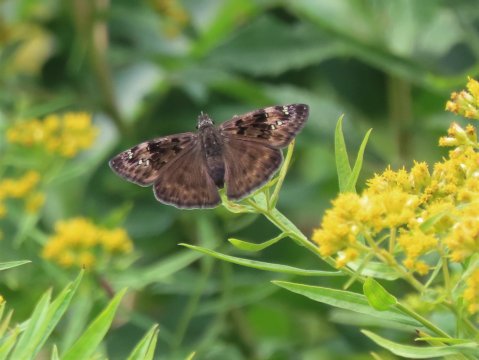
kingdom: Animalia
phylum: Arthropoda
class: Insecta
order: Lepidoptera
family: Hesperiidae
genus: Gesta
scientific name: Gesta
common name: Horace's Duskywing
